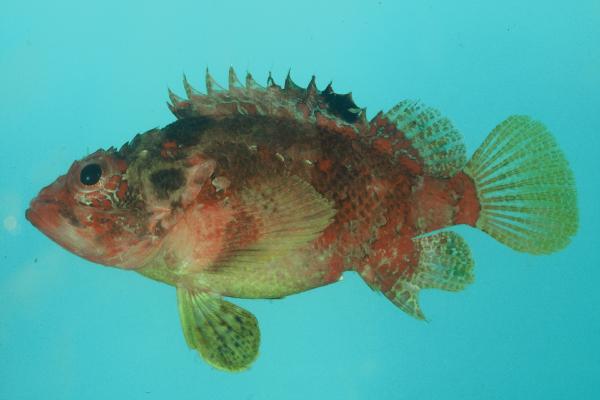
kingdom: Animalia
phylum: Chordata
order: Scorpaeniformes
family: Scorpaenidae
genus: Parascorpaena
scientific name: Parascorpaena mcadamsi
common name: Ocellated scorpionfish
